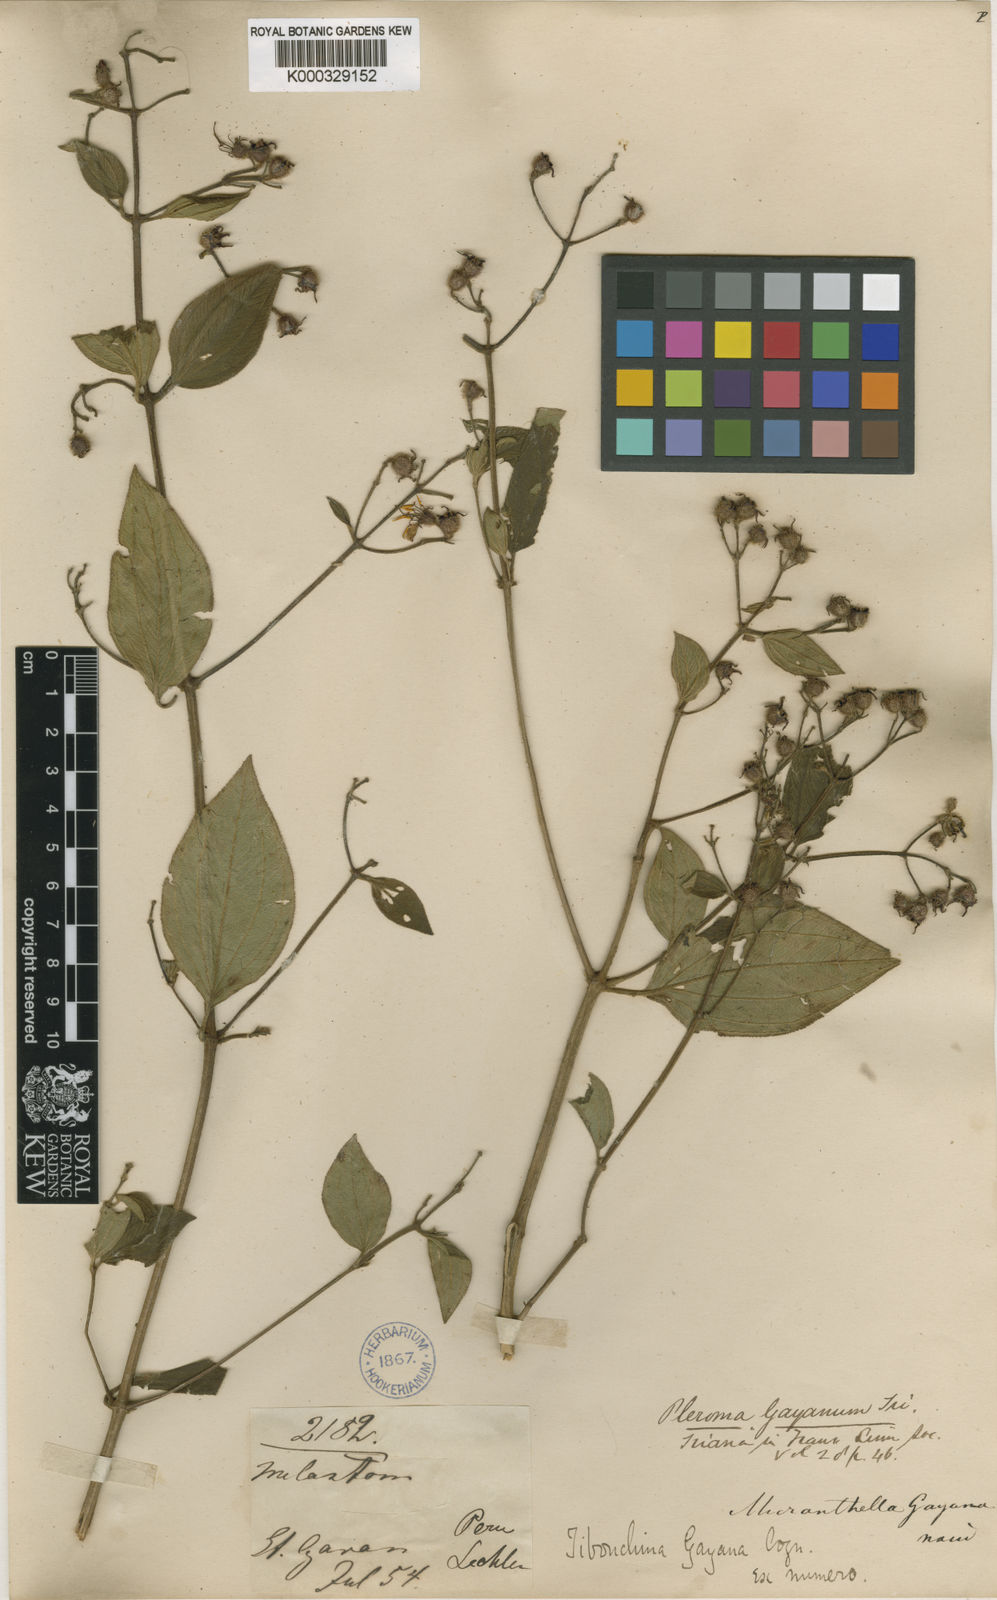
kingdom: Plantae
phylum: Tracheophyta
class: Magnoliopsida
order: Myrtales
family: Melastomataceae
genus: Chaetogastra
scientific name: Chaetogastra gayana
